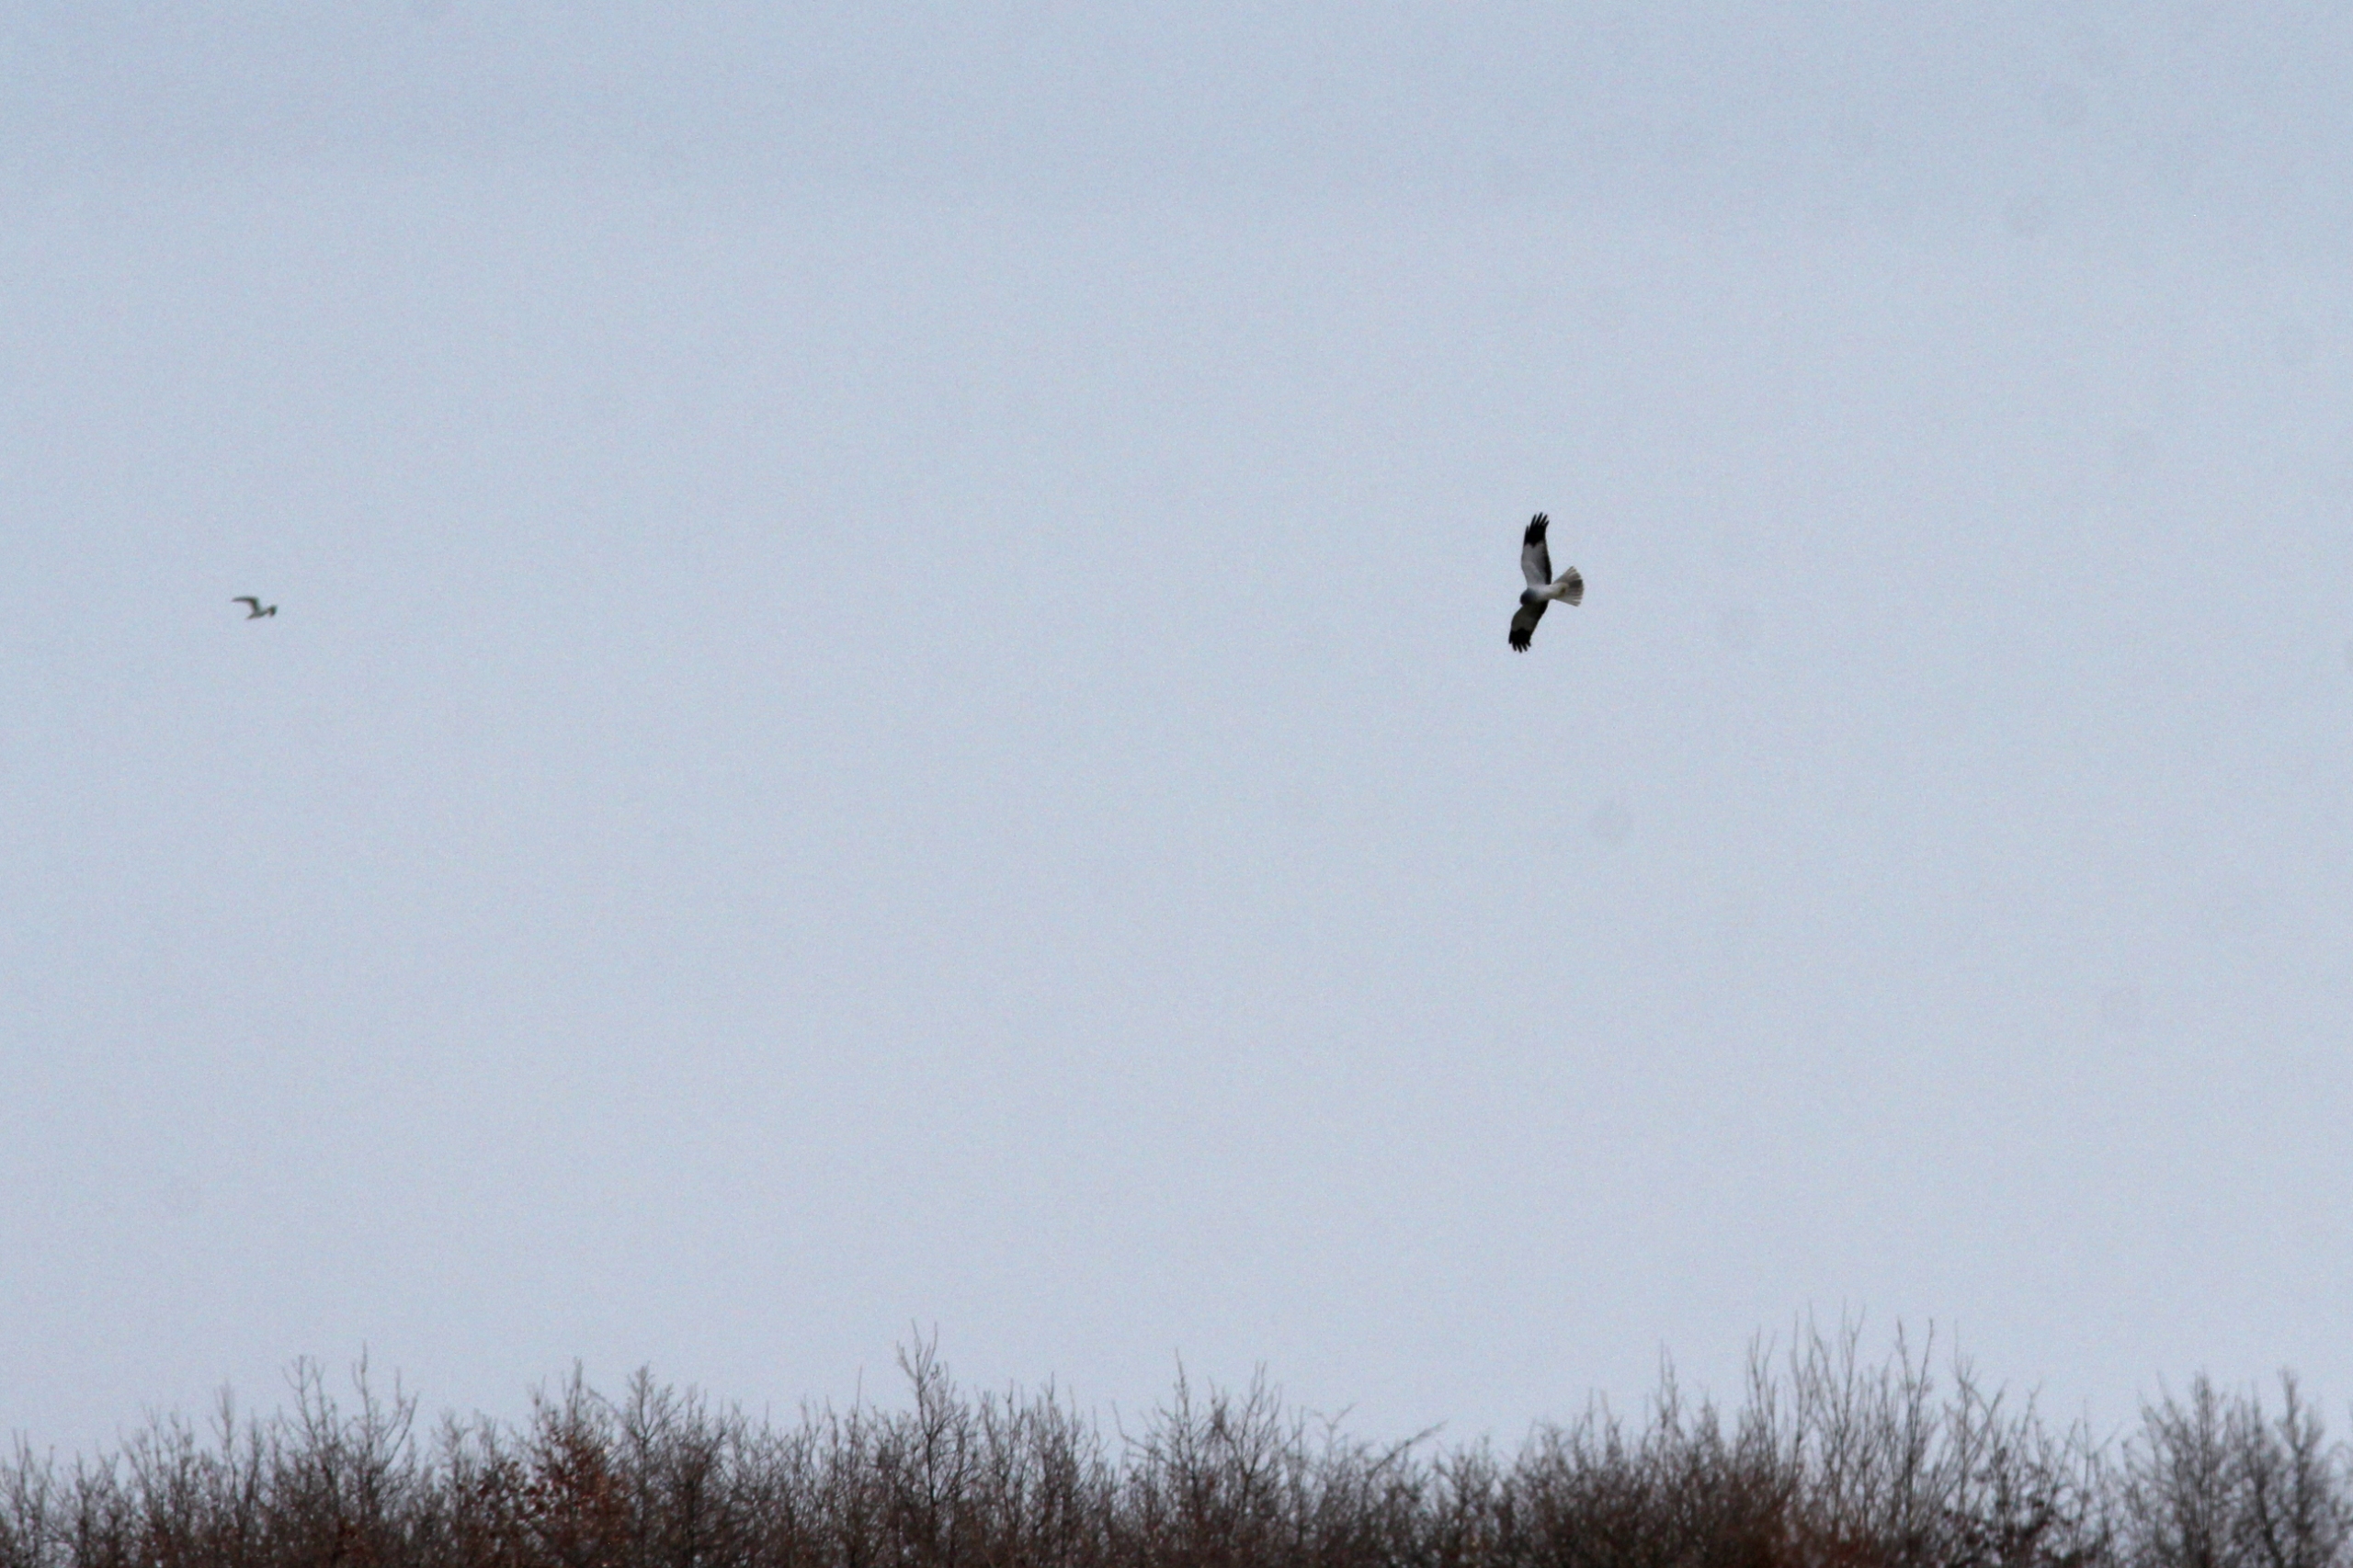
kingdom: Animalia
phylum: Chordata
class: Aves
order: Accipitriformes
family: Accipitridae
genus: Circus
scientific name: Circus cyaneus
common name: Blå kærhøg
